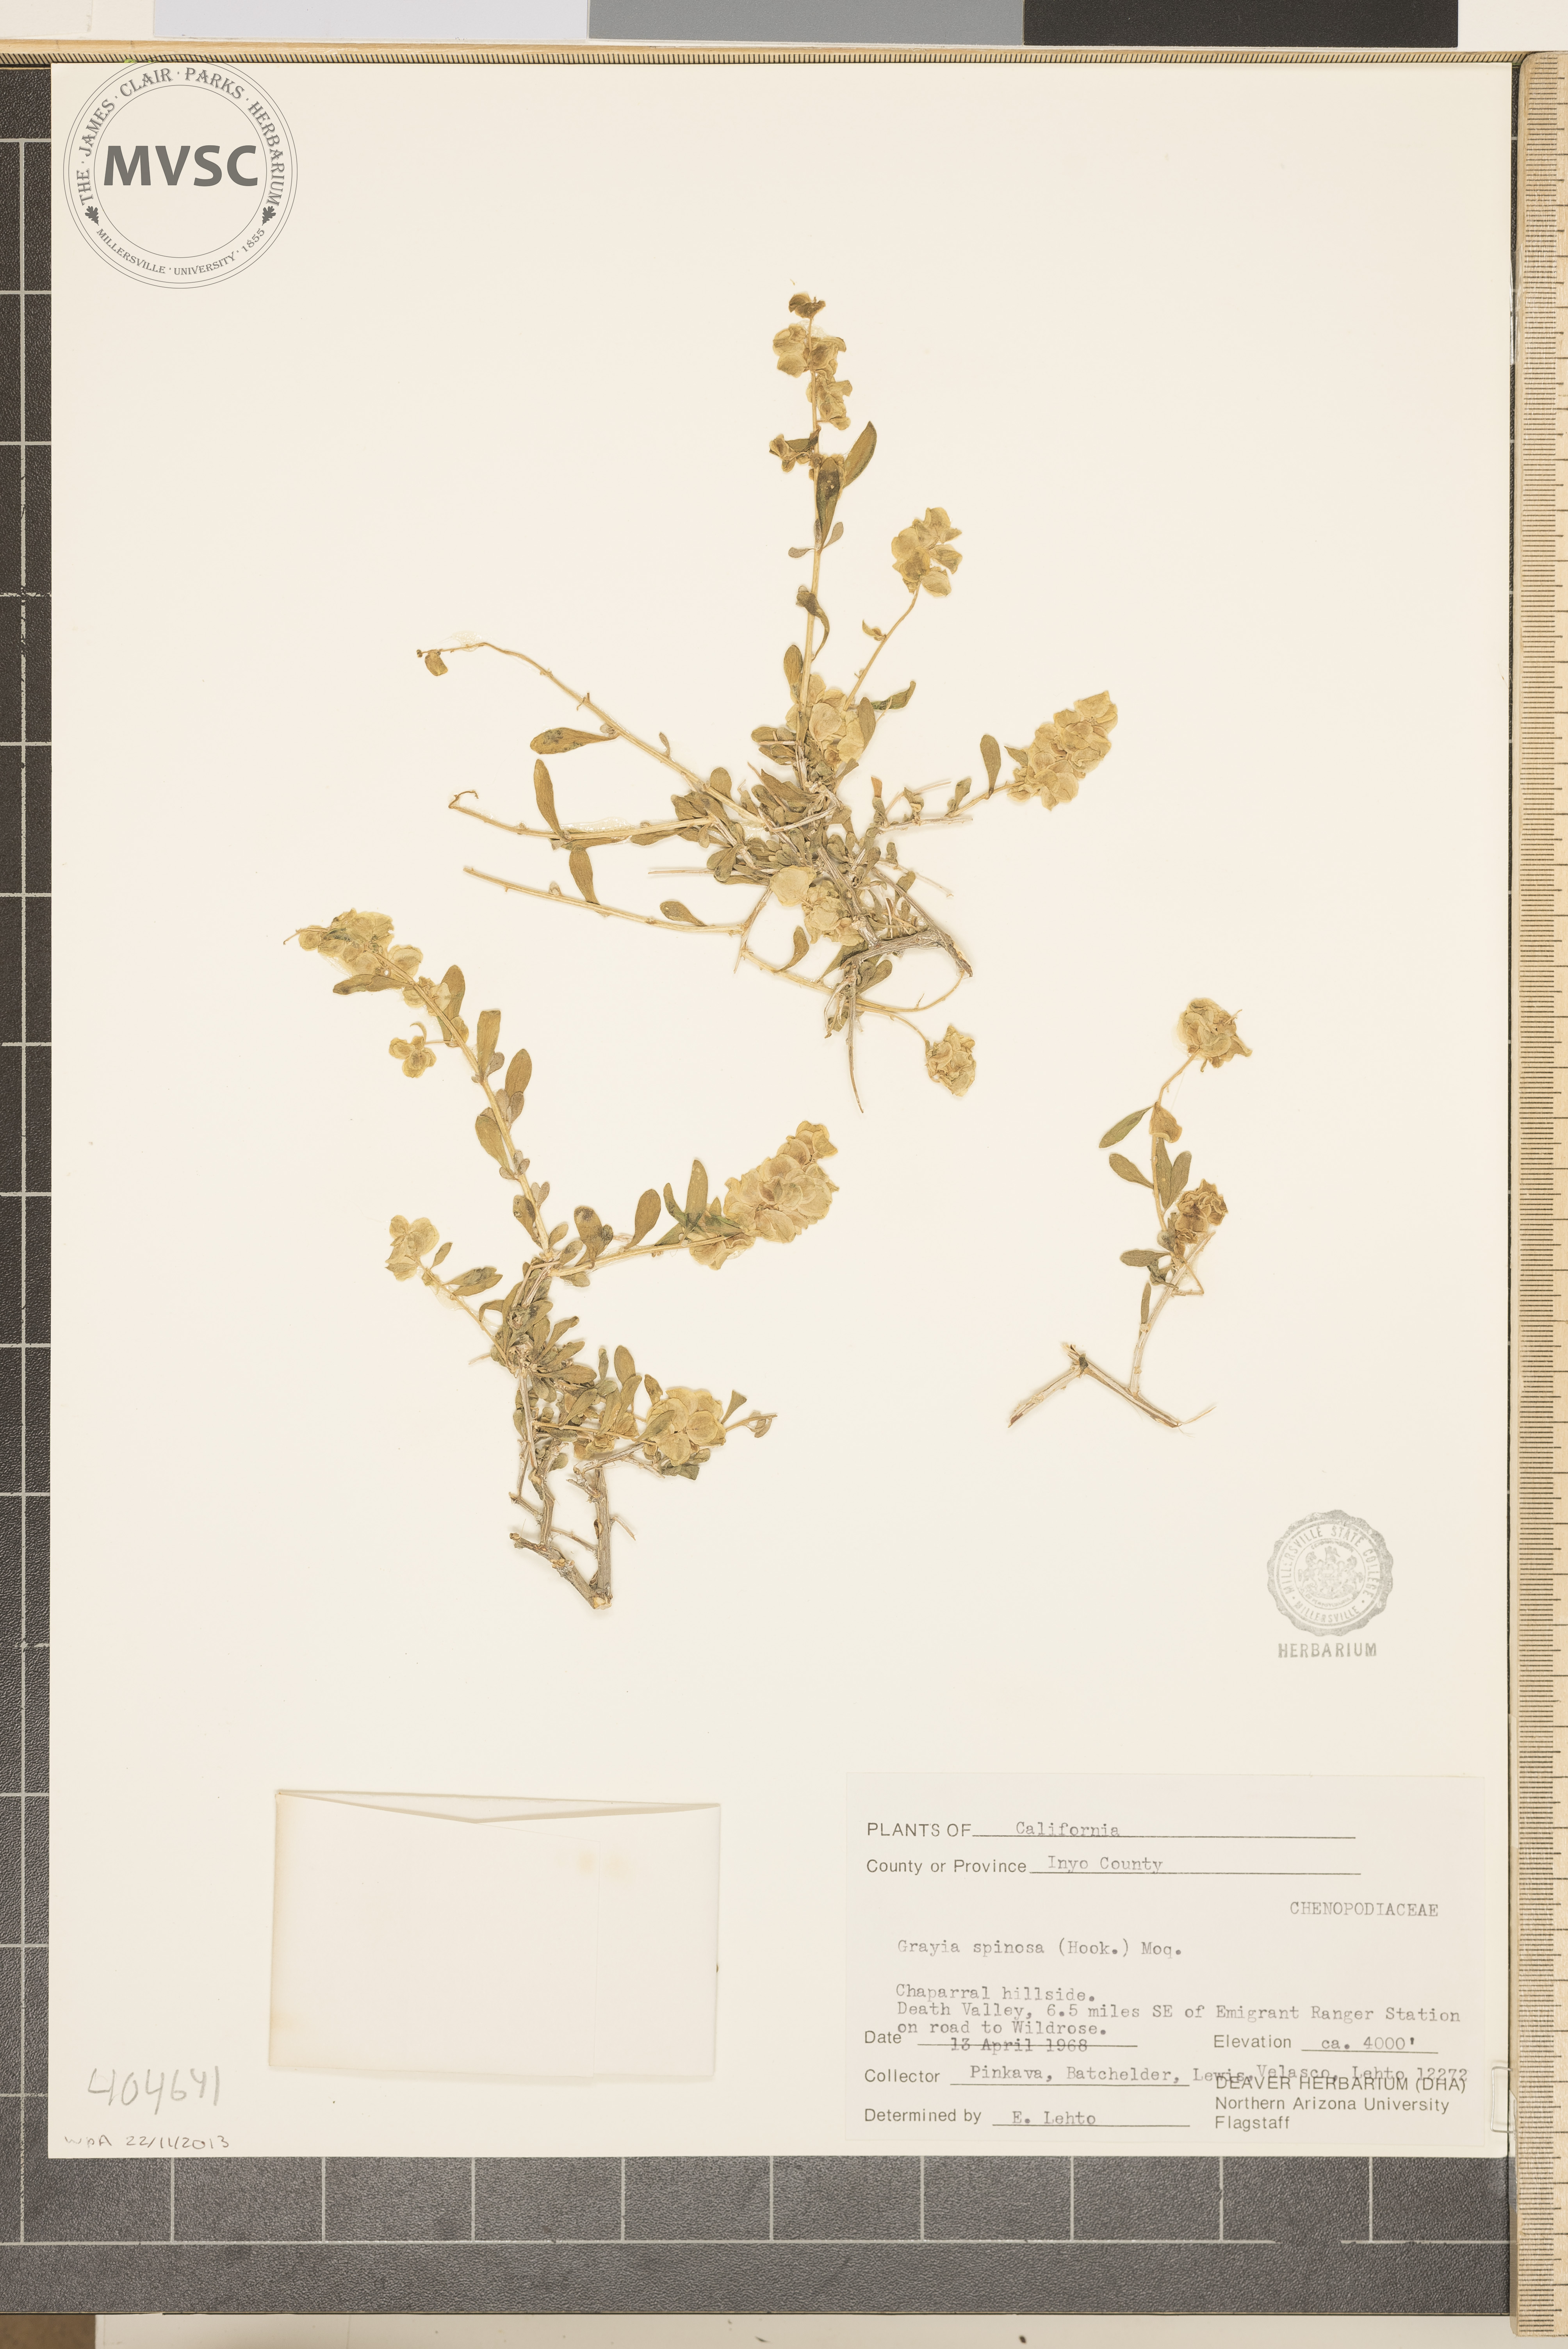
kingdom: Plantae
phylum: Tracheophyta
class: Magnoliopsida
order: Caryophyllales
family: Amaranthaceae
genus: Grayia
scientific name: Grayia spinosa
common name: Spiny hopsage
